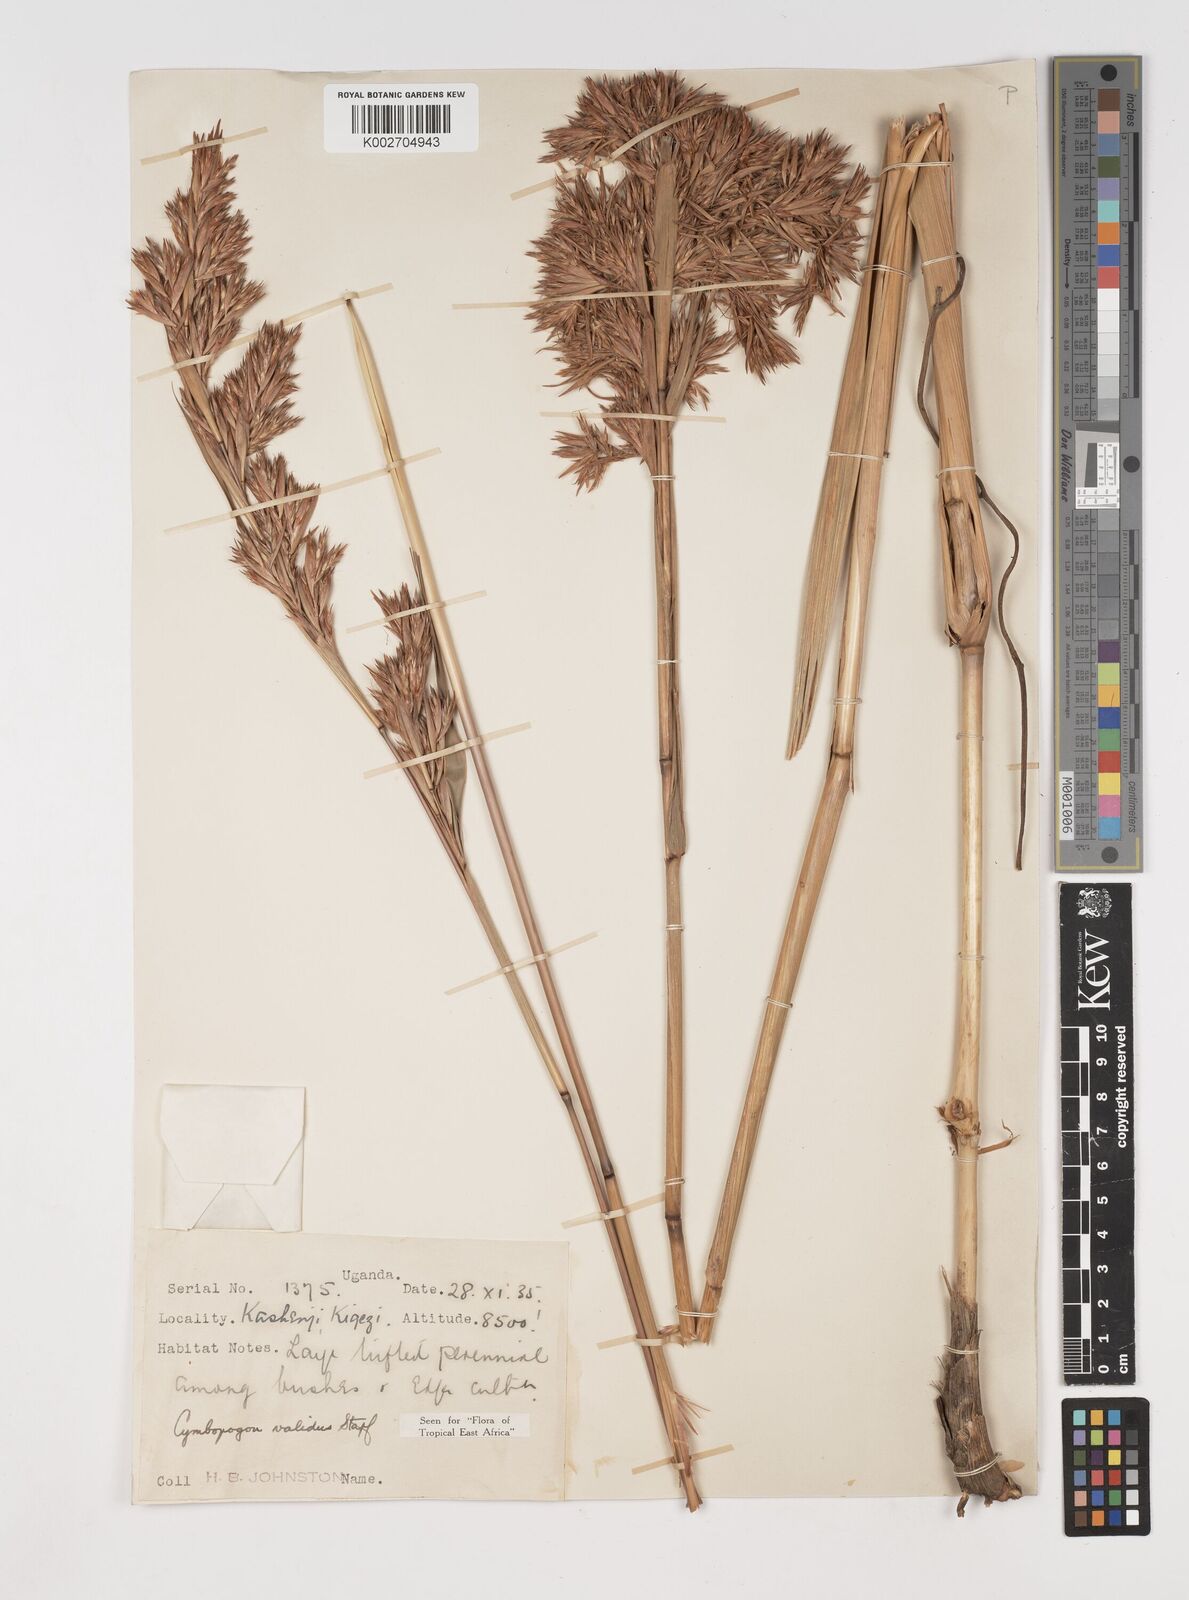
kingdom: Plantae
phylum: Tracheophyta
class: Liliopsida
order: Poales
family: Poaceae
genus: Cymbopogon
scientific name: Cymbopogon nardus
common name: Giant turpentine grass
